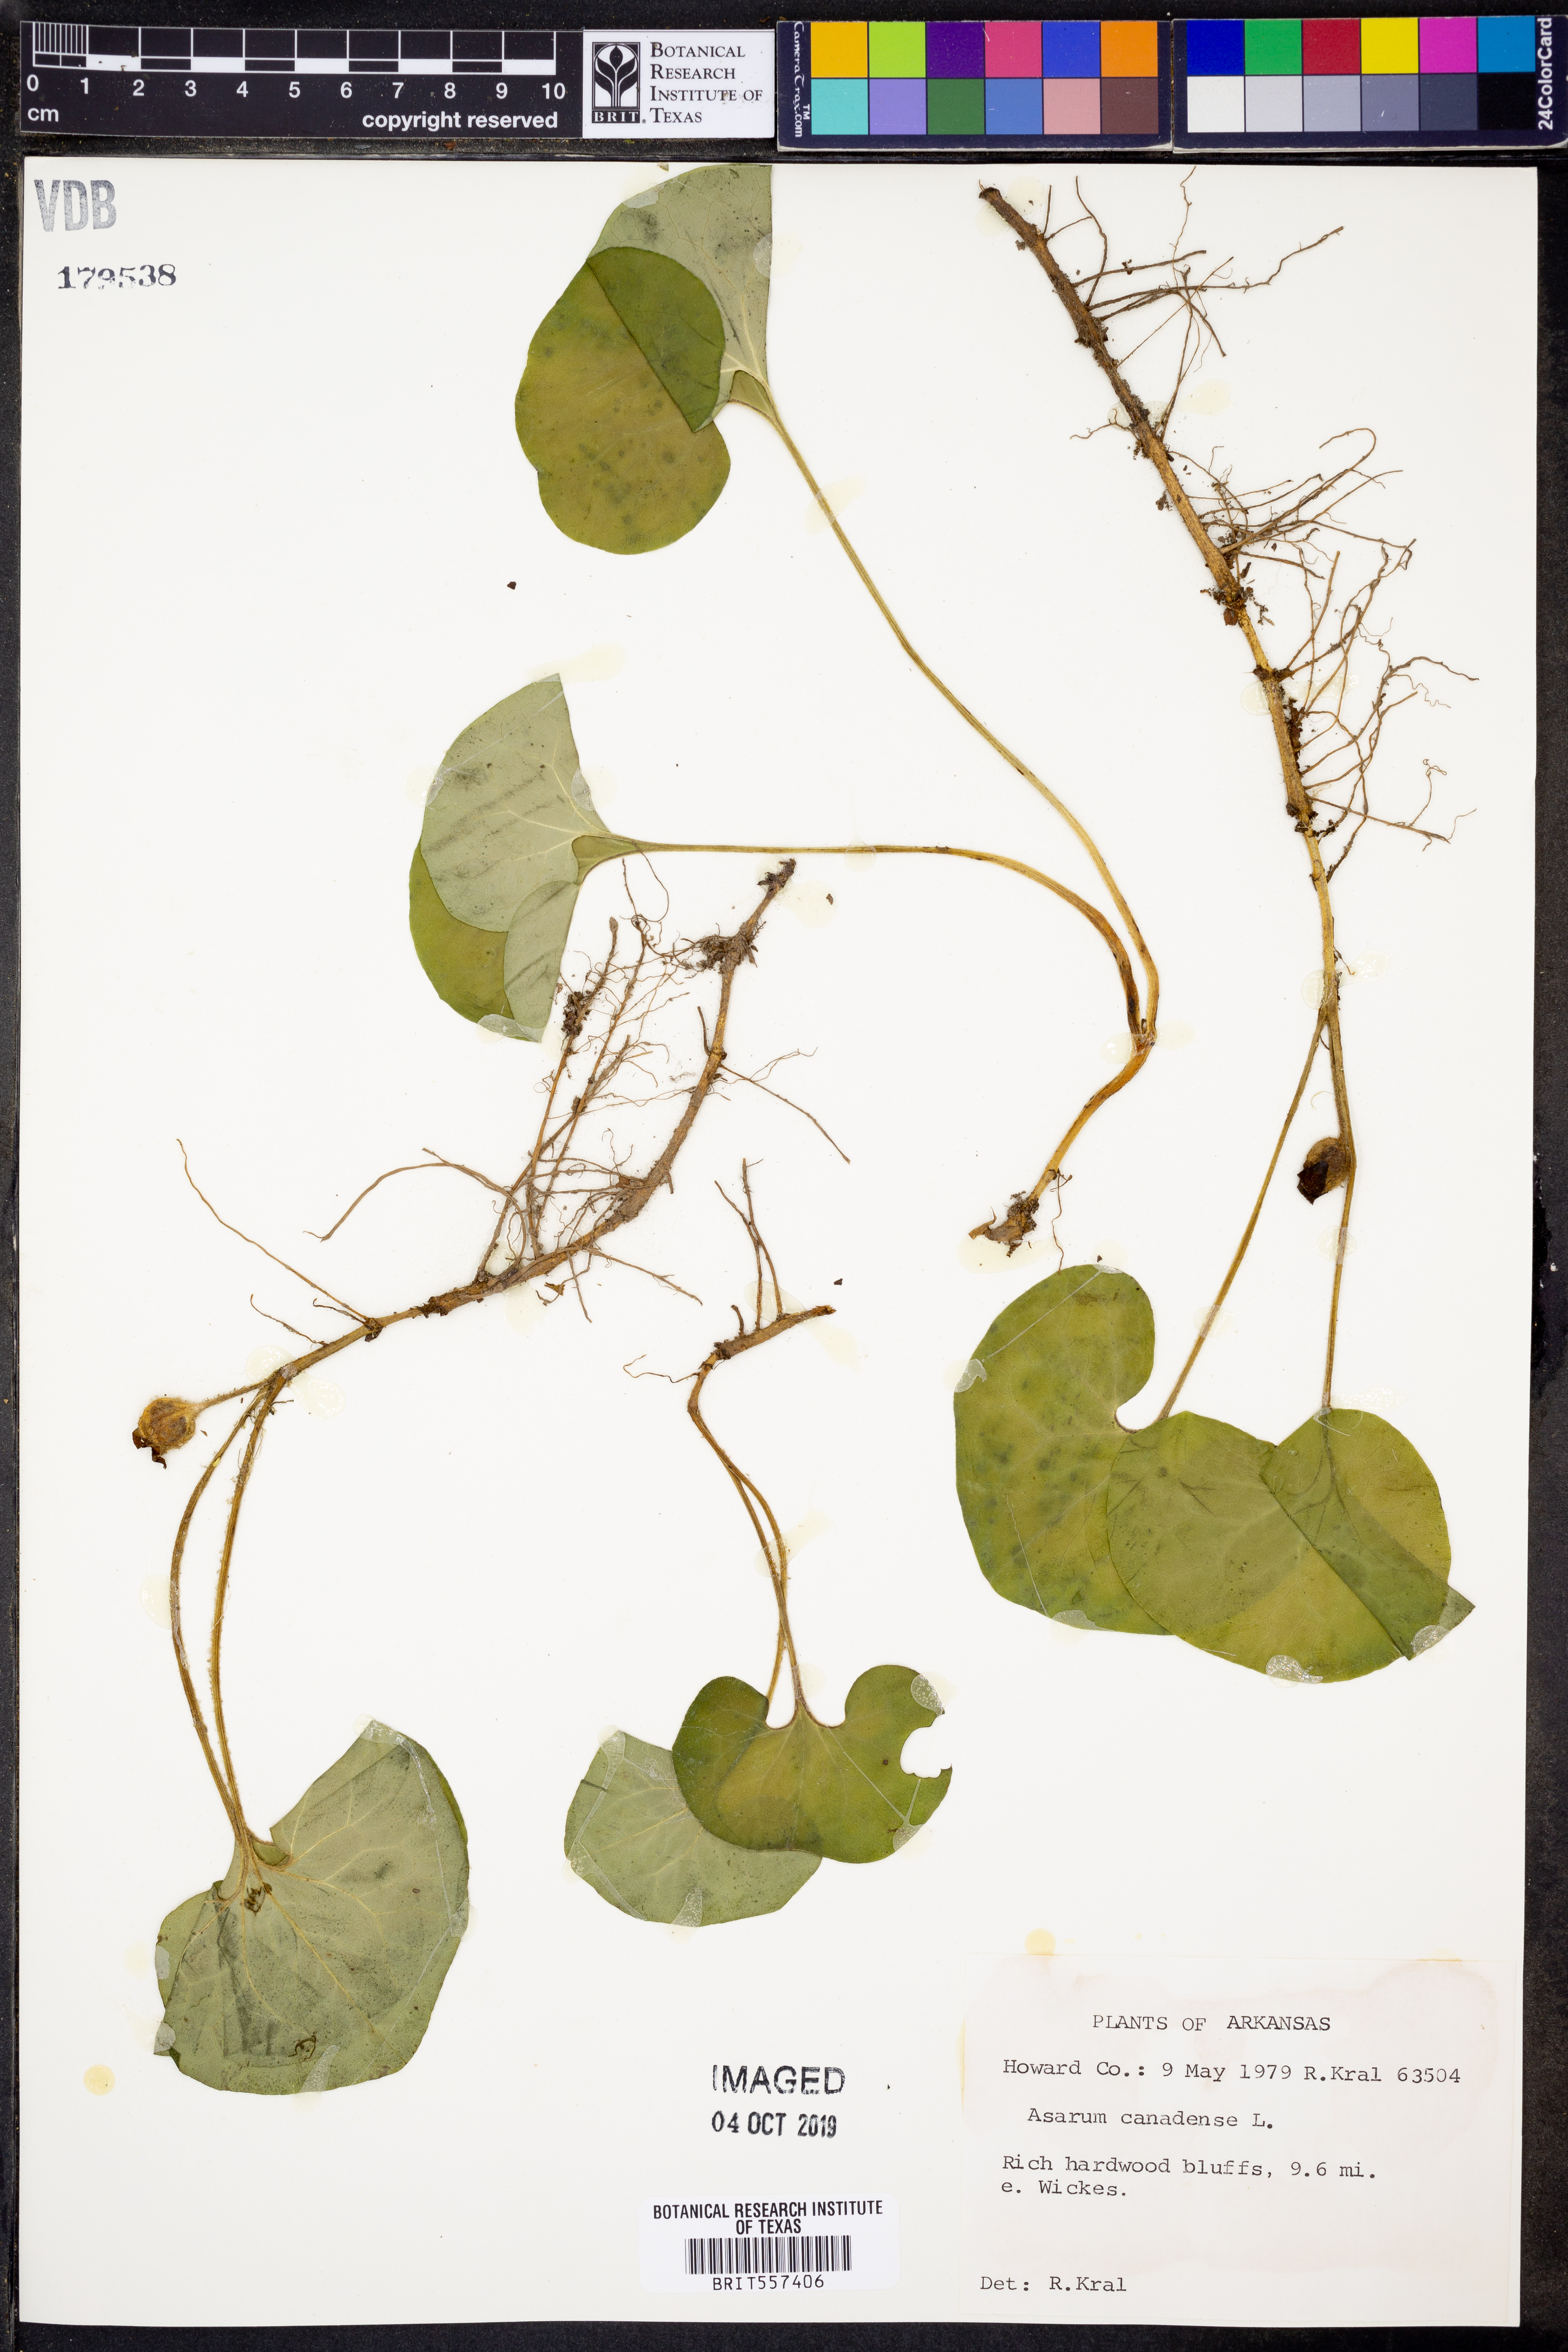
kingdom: Plantae
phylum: Tracheophyta
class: Magnoliopsida
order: Piperales
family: Aristolochiaceae
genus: Asarum
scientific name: Asarum canadense
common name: Wild ginger
